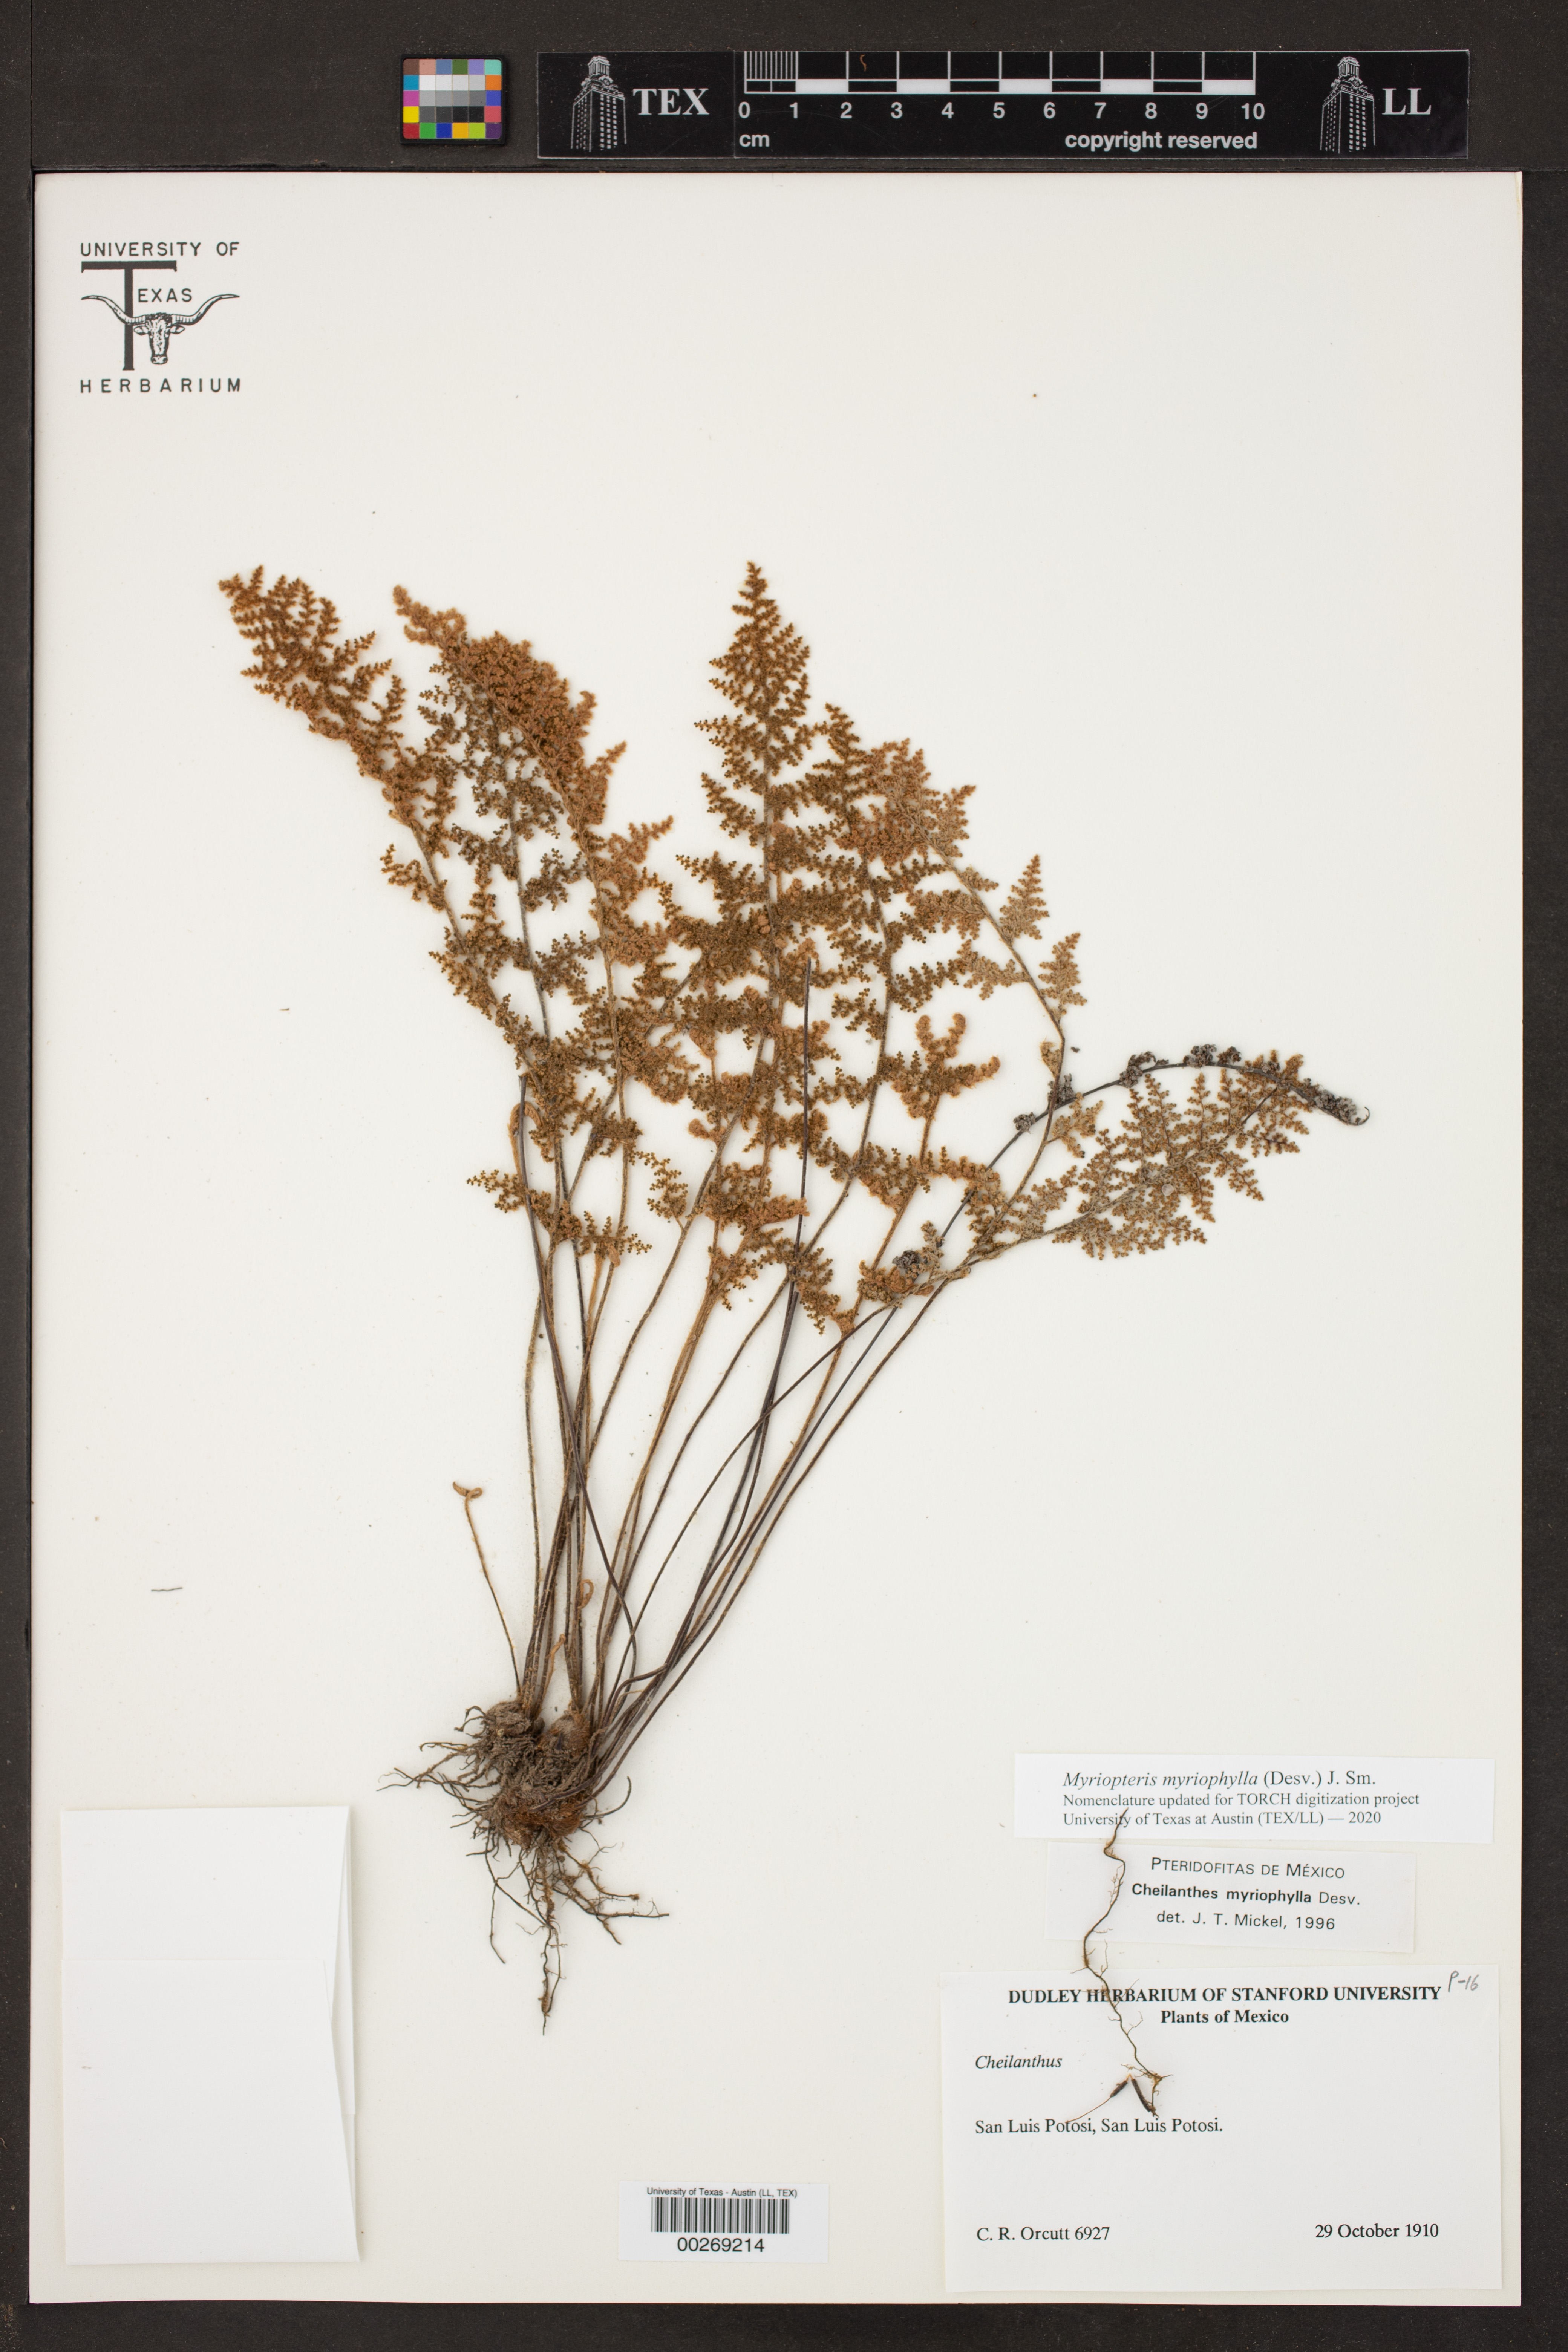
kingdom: Plantae
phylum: Tracheophyta
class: Polypodiopsida
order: Polypodiales
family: Pteridaceae
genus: Myriopteris
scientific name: Myriopteris myriophylla
